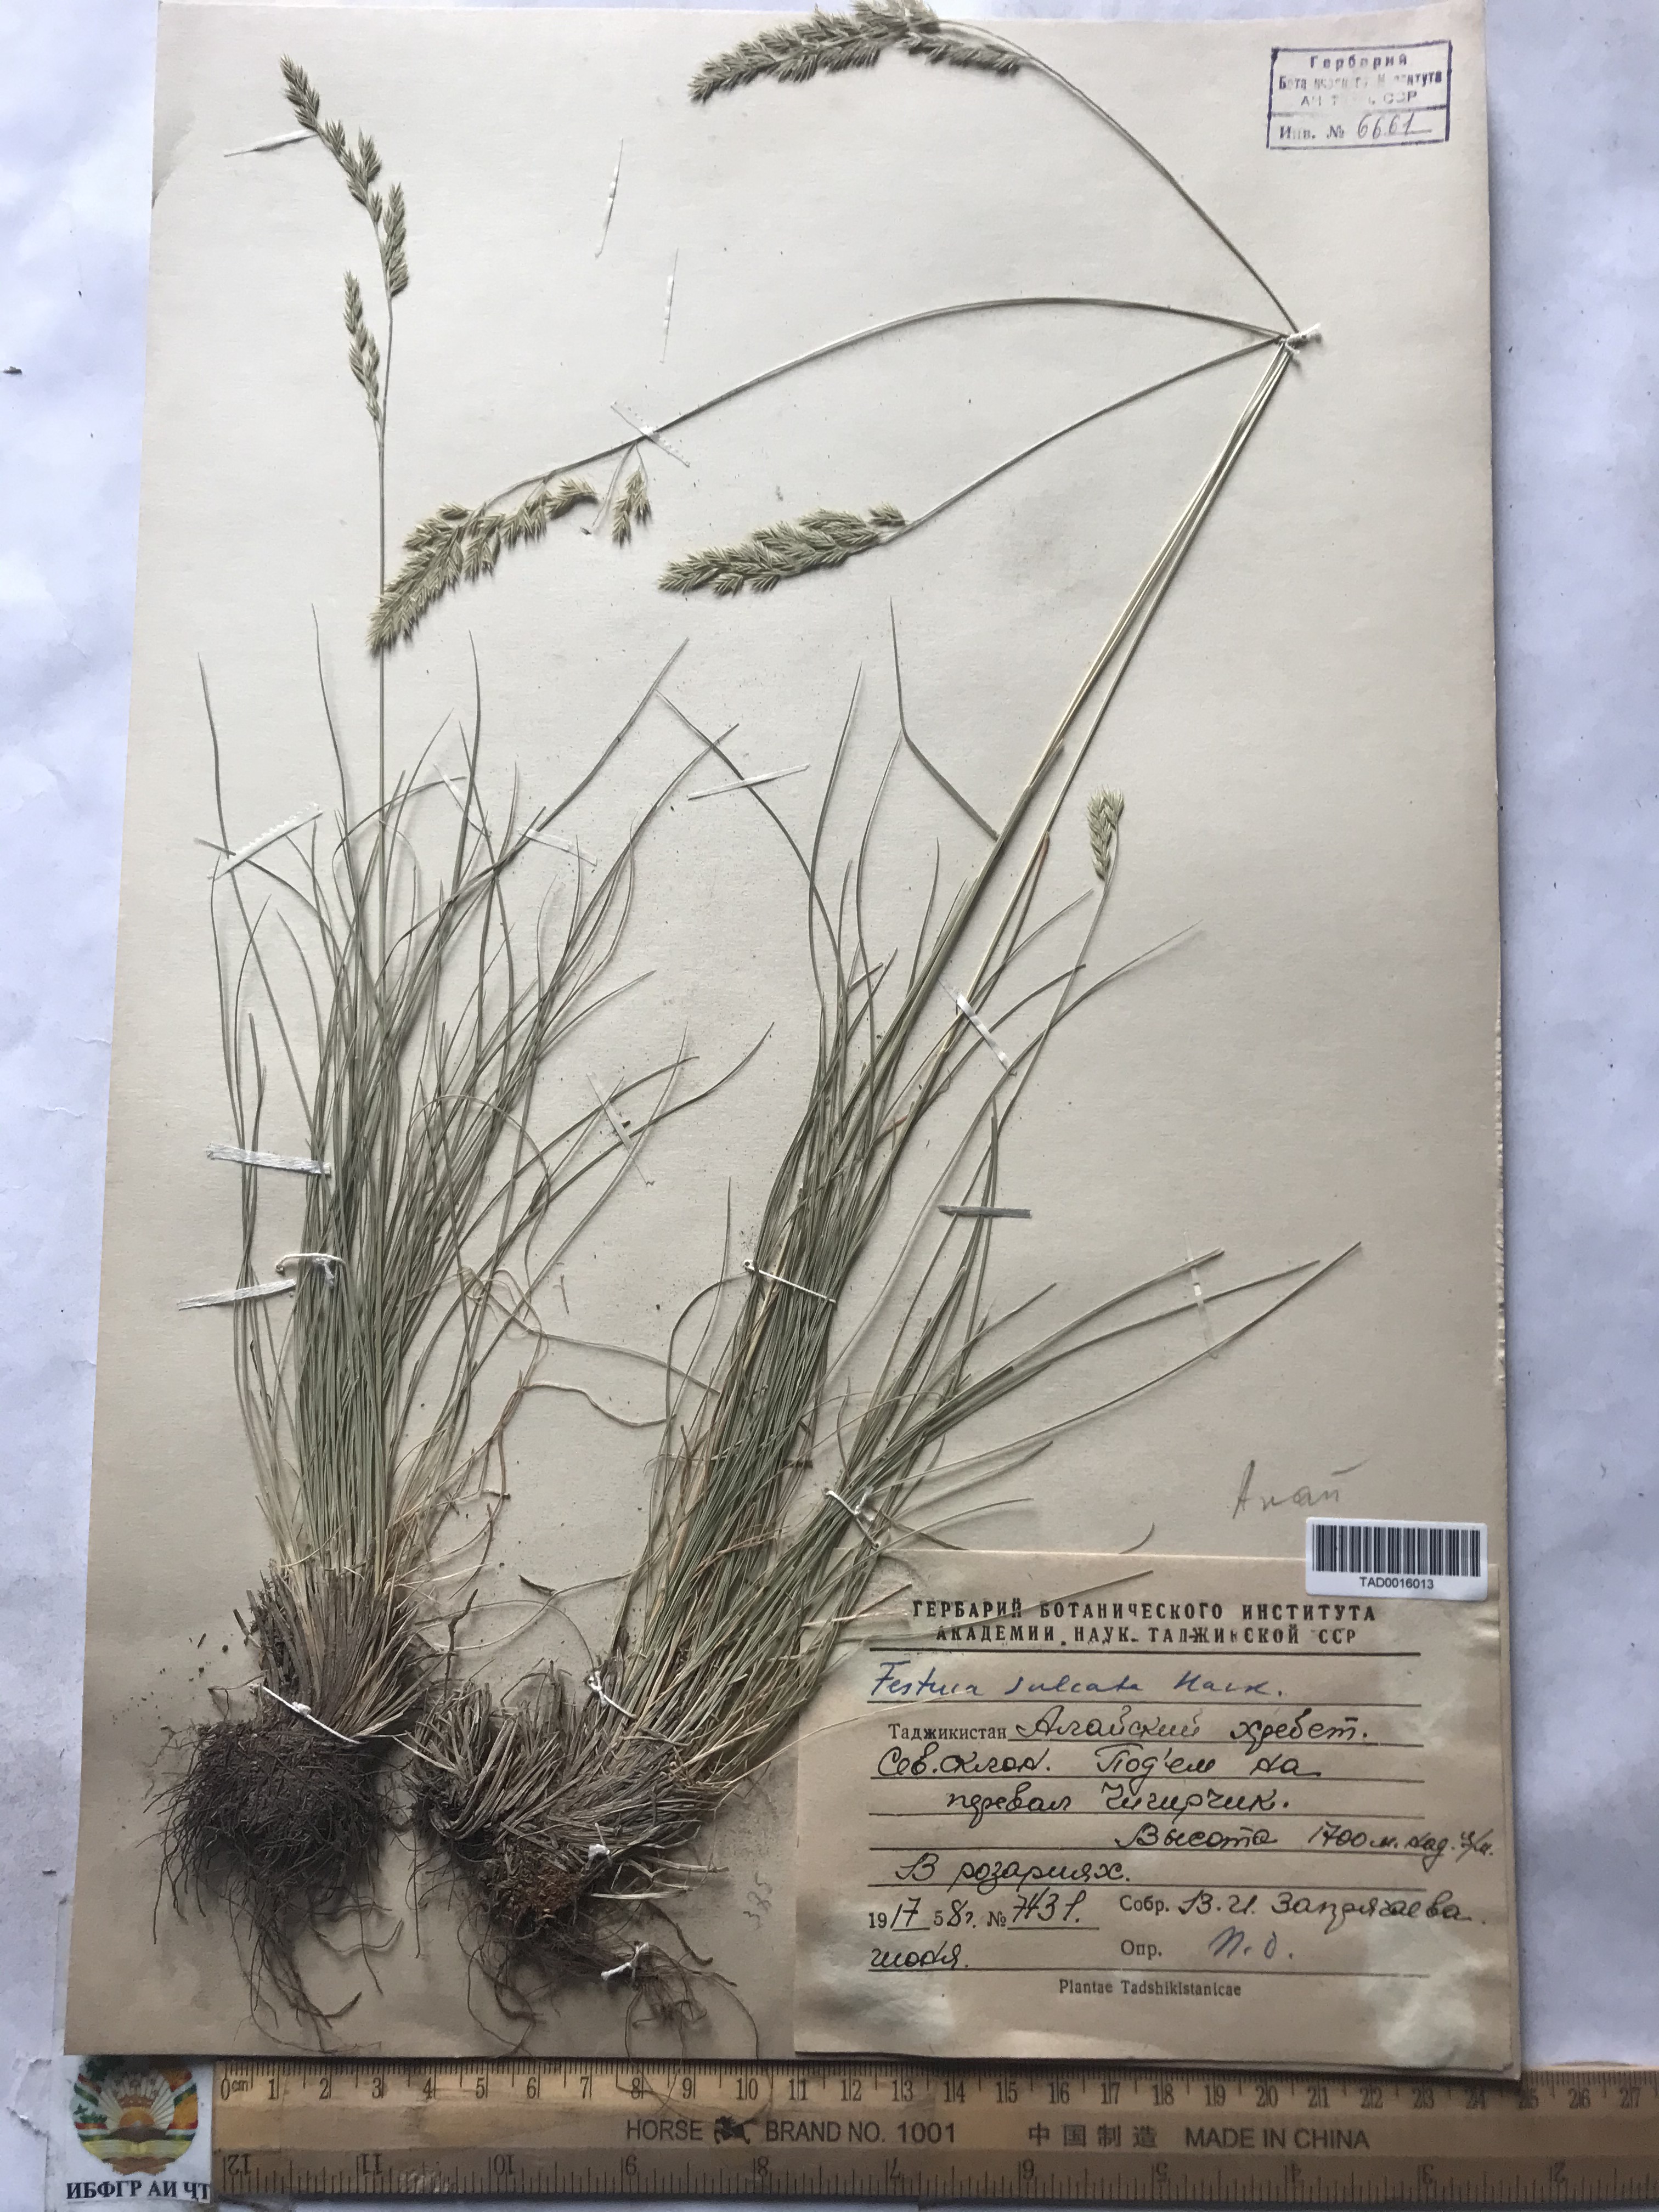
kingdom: Plantae
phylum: Tracheophyta
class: Liliopsida
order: Poales
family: Poaceae
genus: Festuca
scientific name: Festuca sulcata
